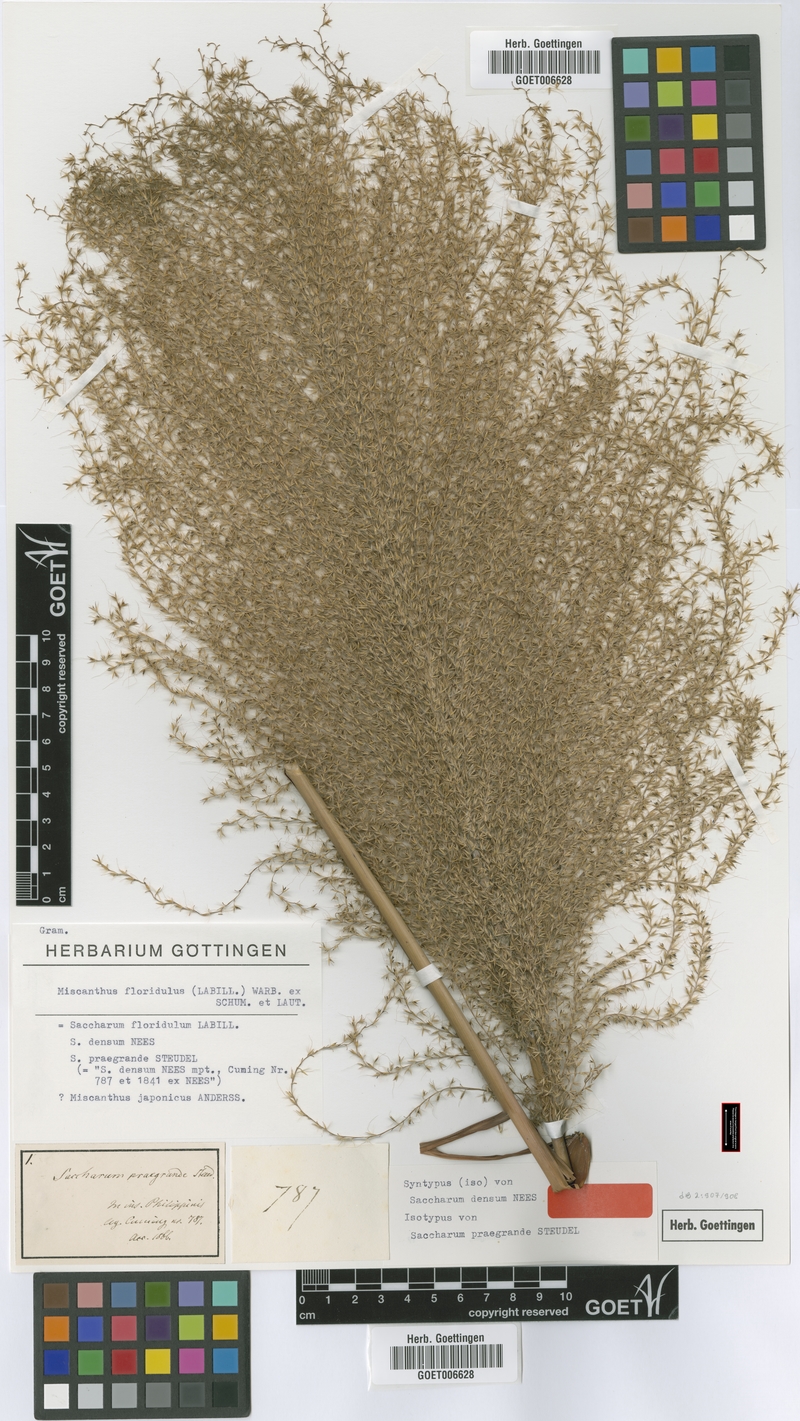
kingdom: Plantae
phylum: Tracheophyta
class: Liliopsida
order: Poales
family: Poaceae
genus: Miscanthus
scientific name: Miscanthus floridulus
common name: Pacific island silvergrass
